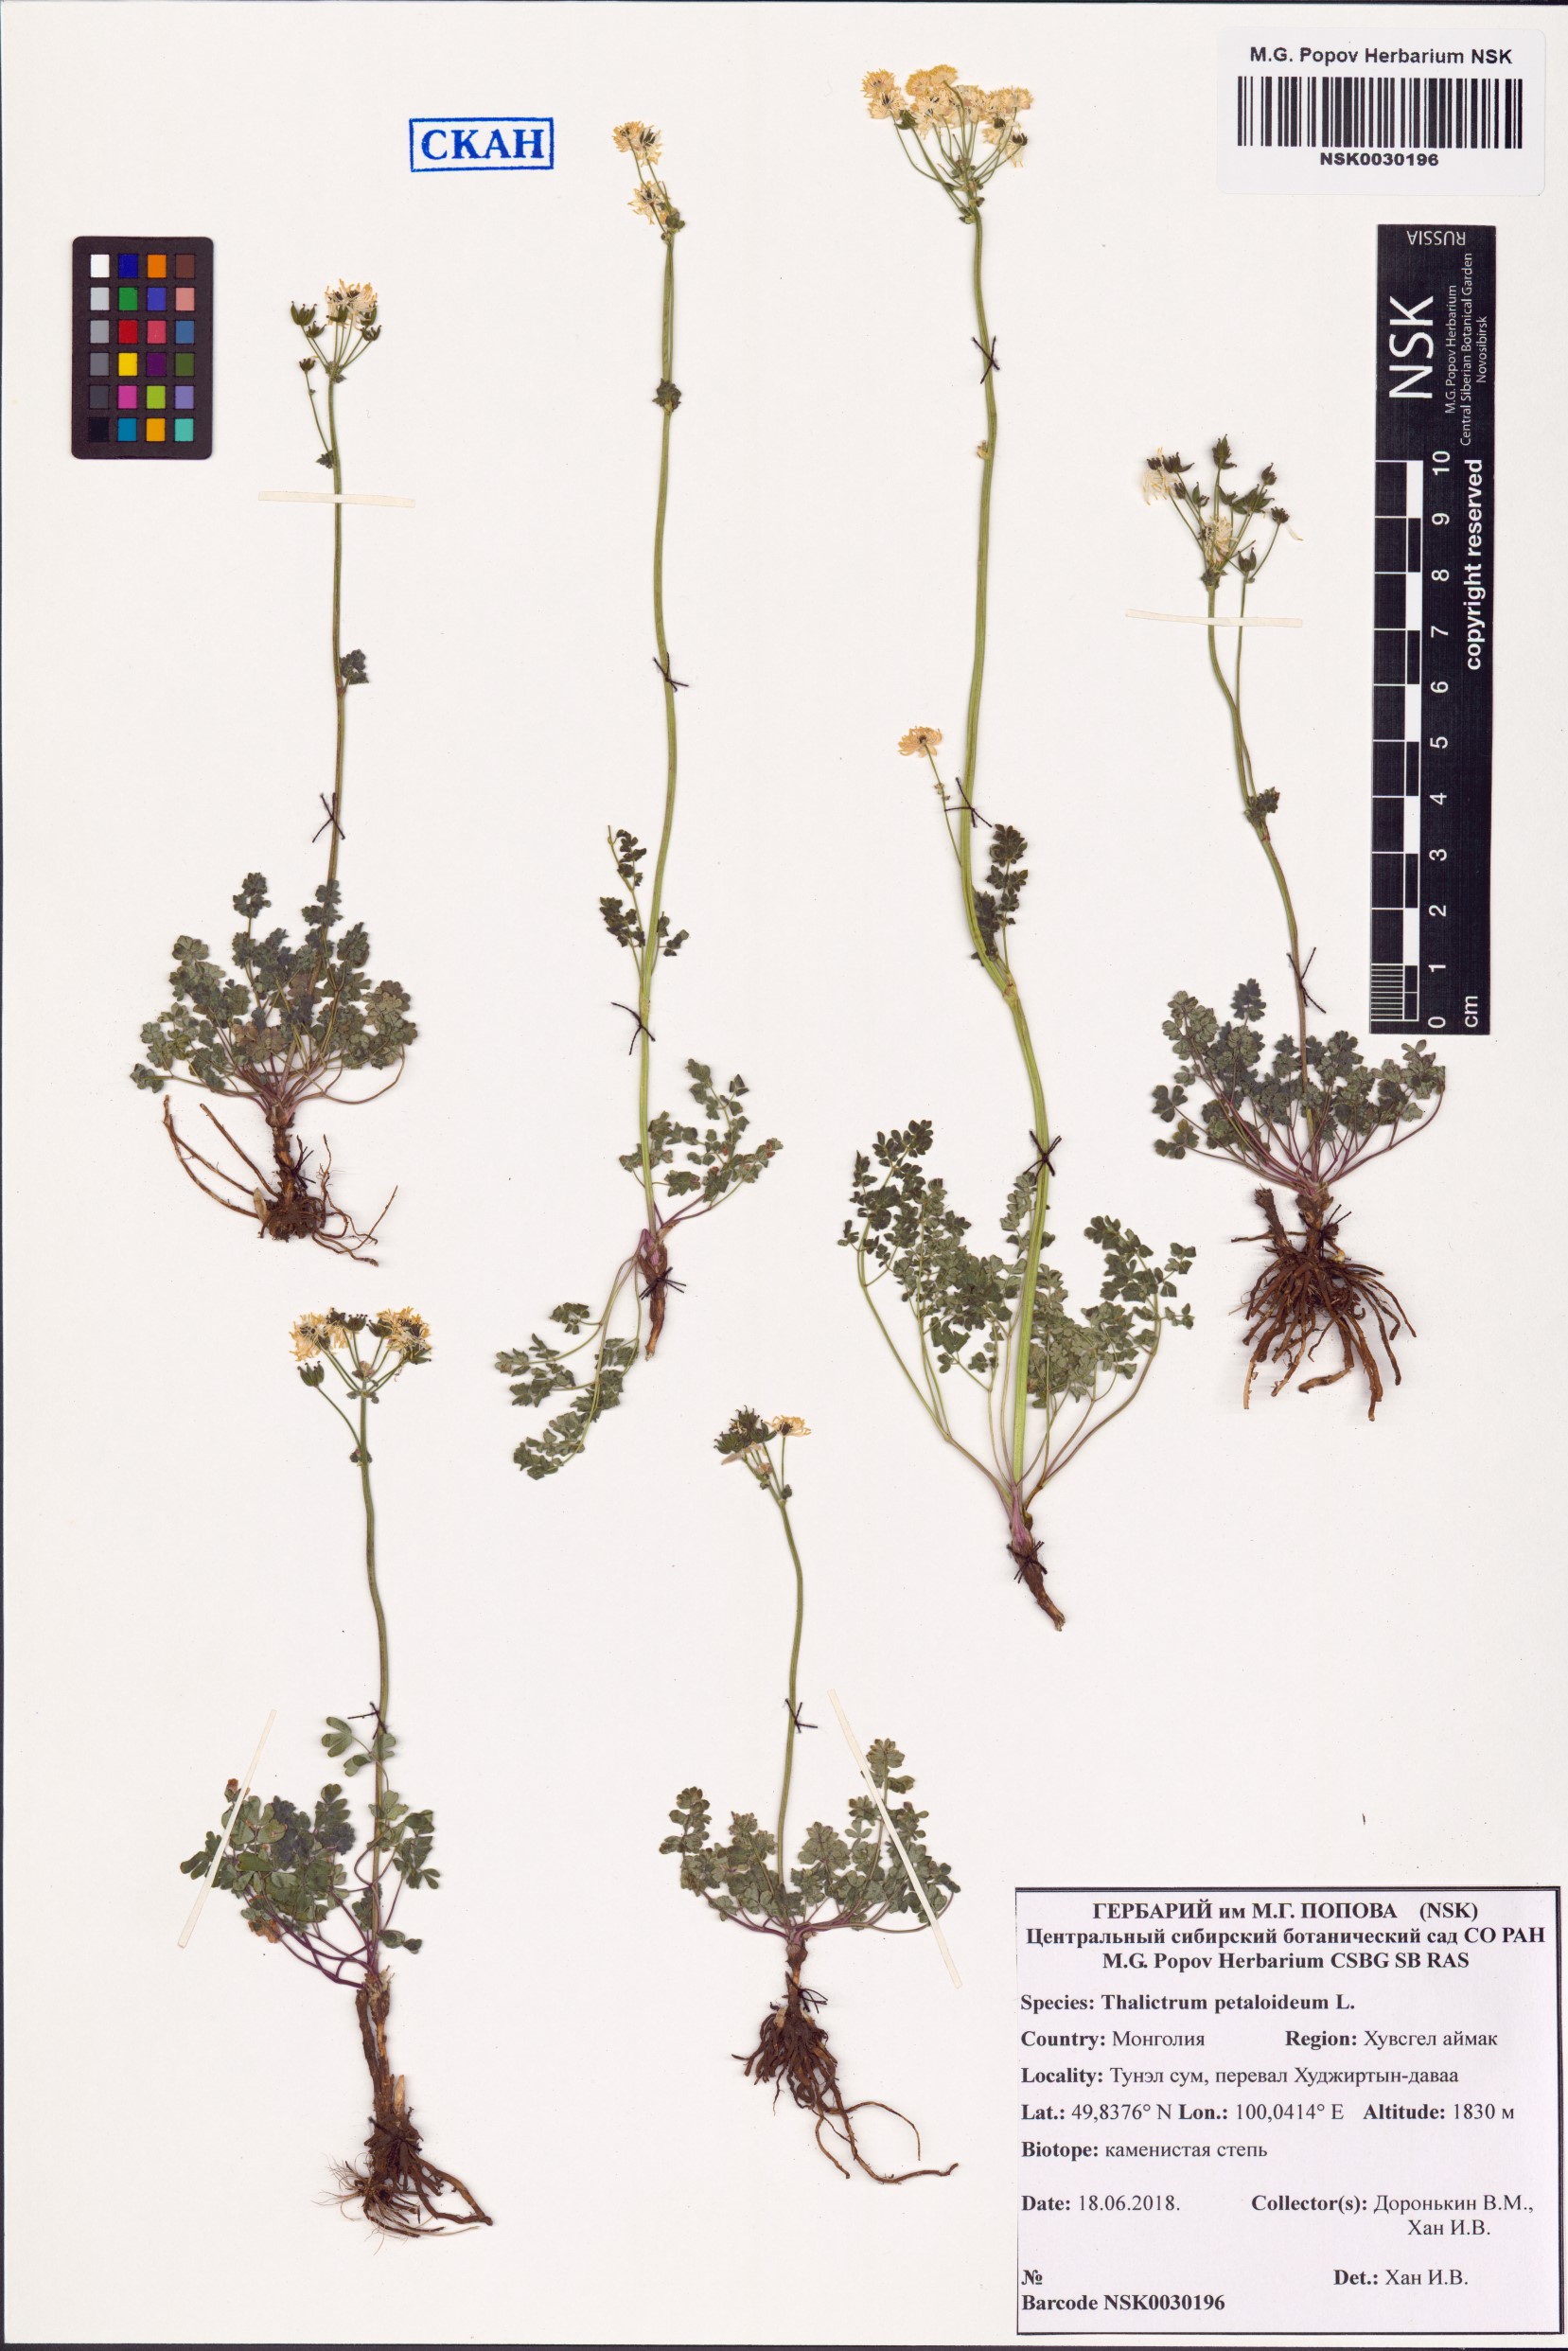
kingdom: Plantae
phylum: Tracheophyta
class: Magnoliopsida
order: Ranunculales
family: Ranunculaceae
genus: Thalictrum
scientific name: Thalictrum petaloideum
